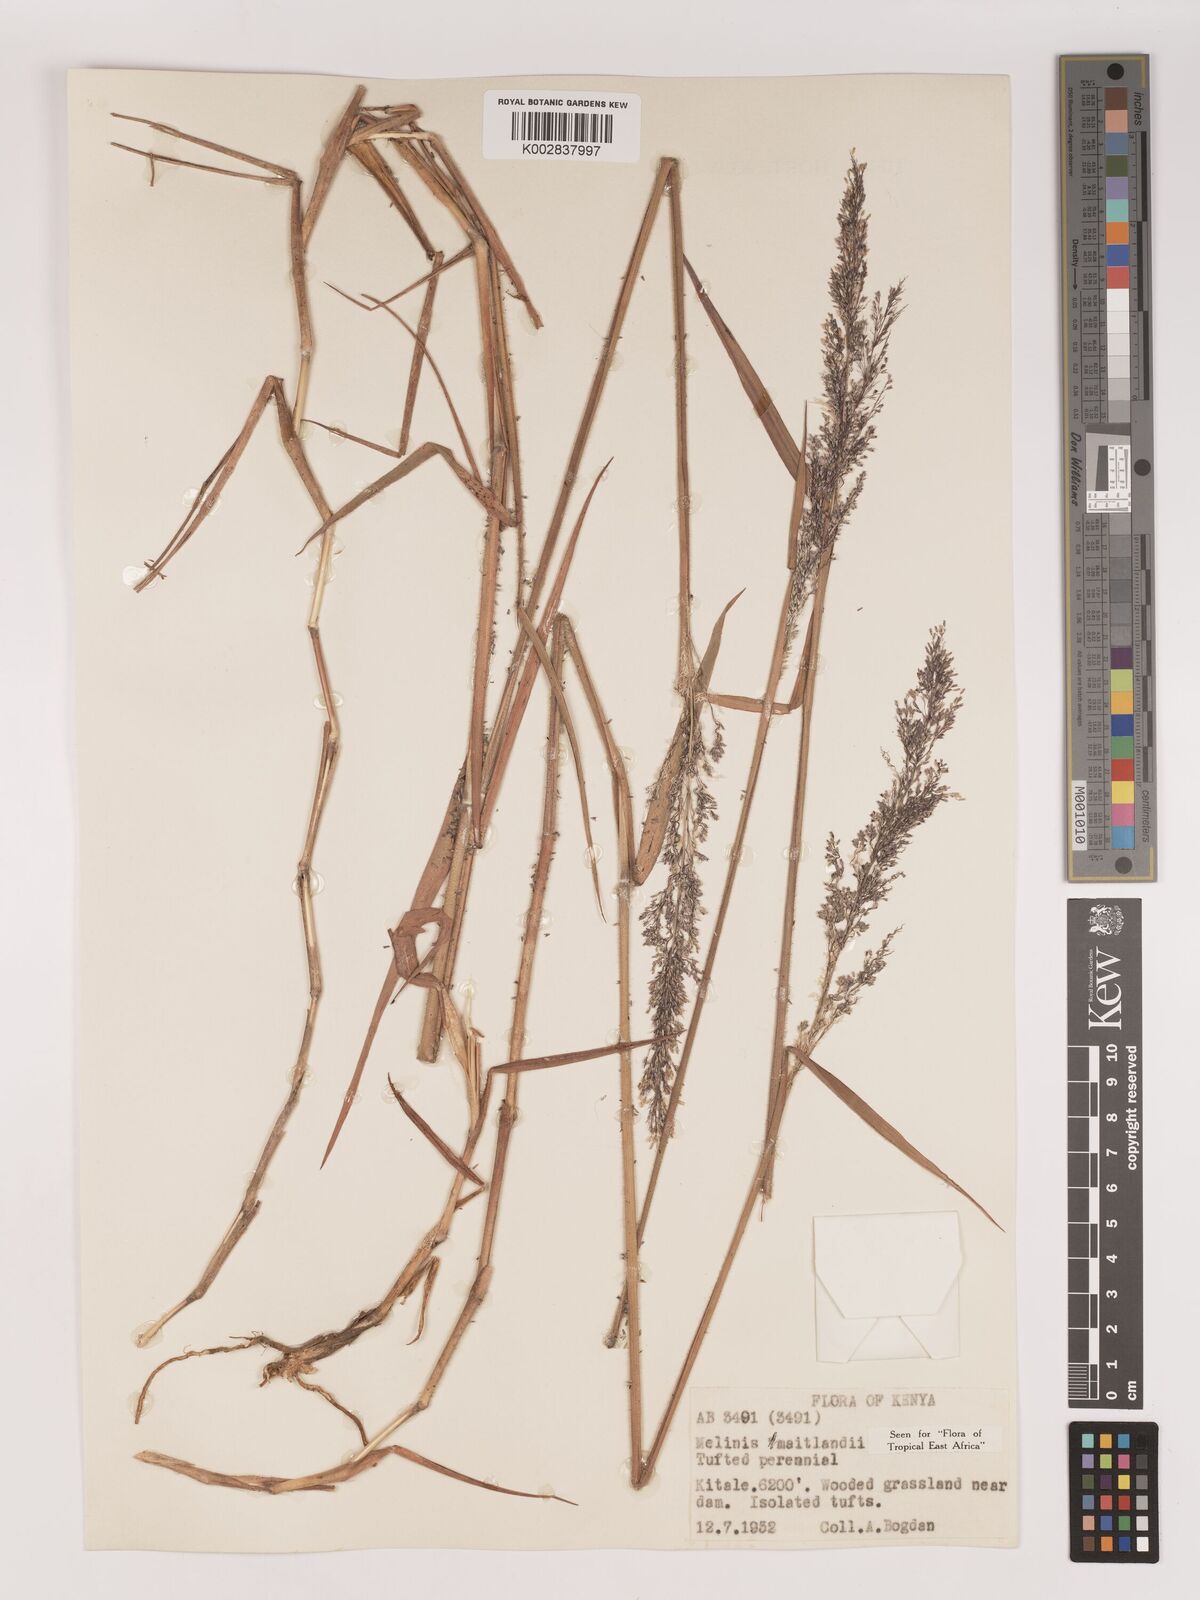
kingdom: Plantae
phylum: Tracheophyta
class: Liliopsida
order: Poales
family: Poaceae
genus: Melinis
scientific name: Melinis minutiflora
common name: Molassesgrass
